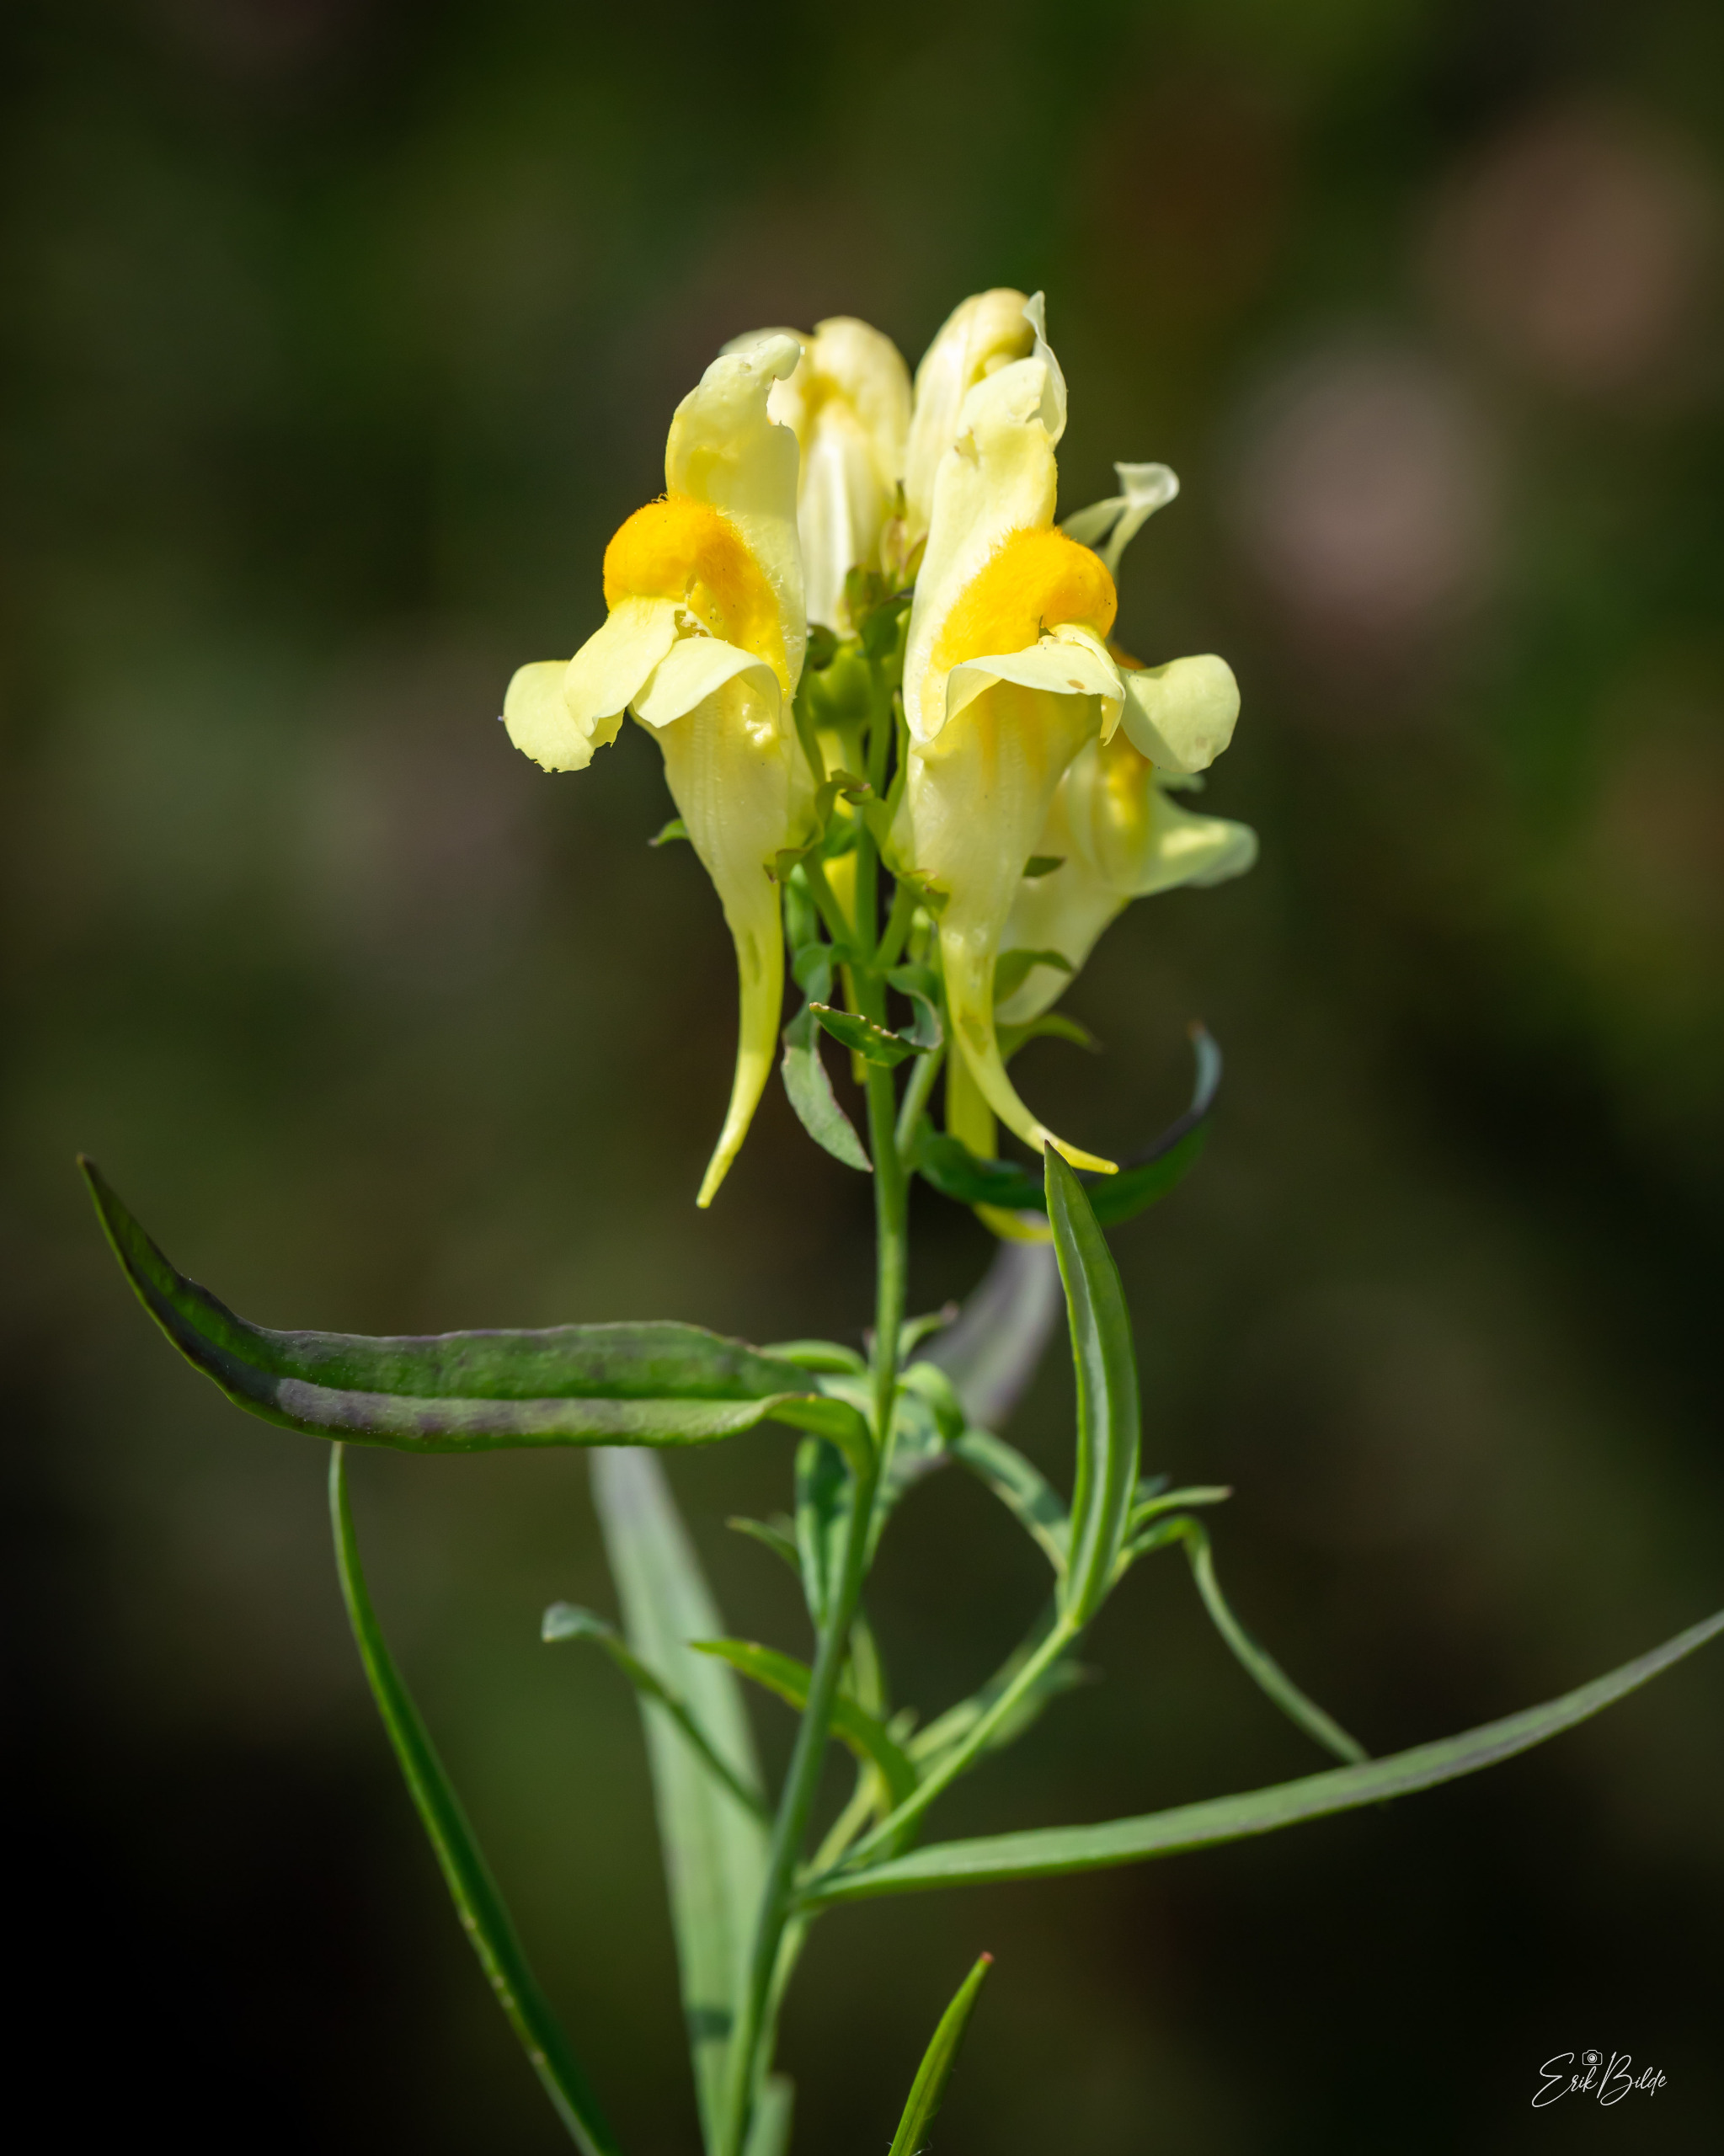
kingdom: Plantae
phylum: Tracheophyta
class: Magnoliopsida
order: Lamiales
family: Plantaginaceae
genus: Linaria
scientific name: Linaria vulgaris
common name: Almindelig torskemund
